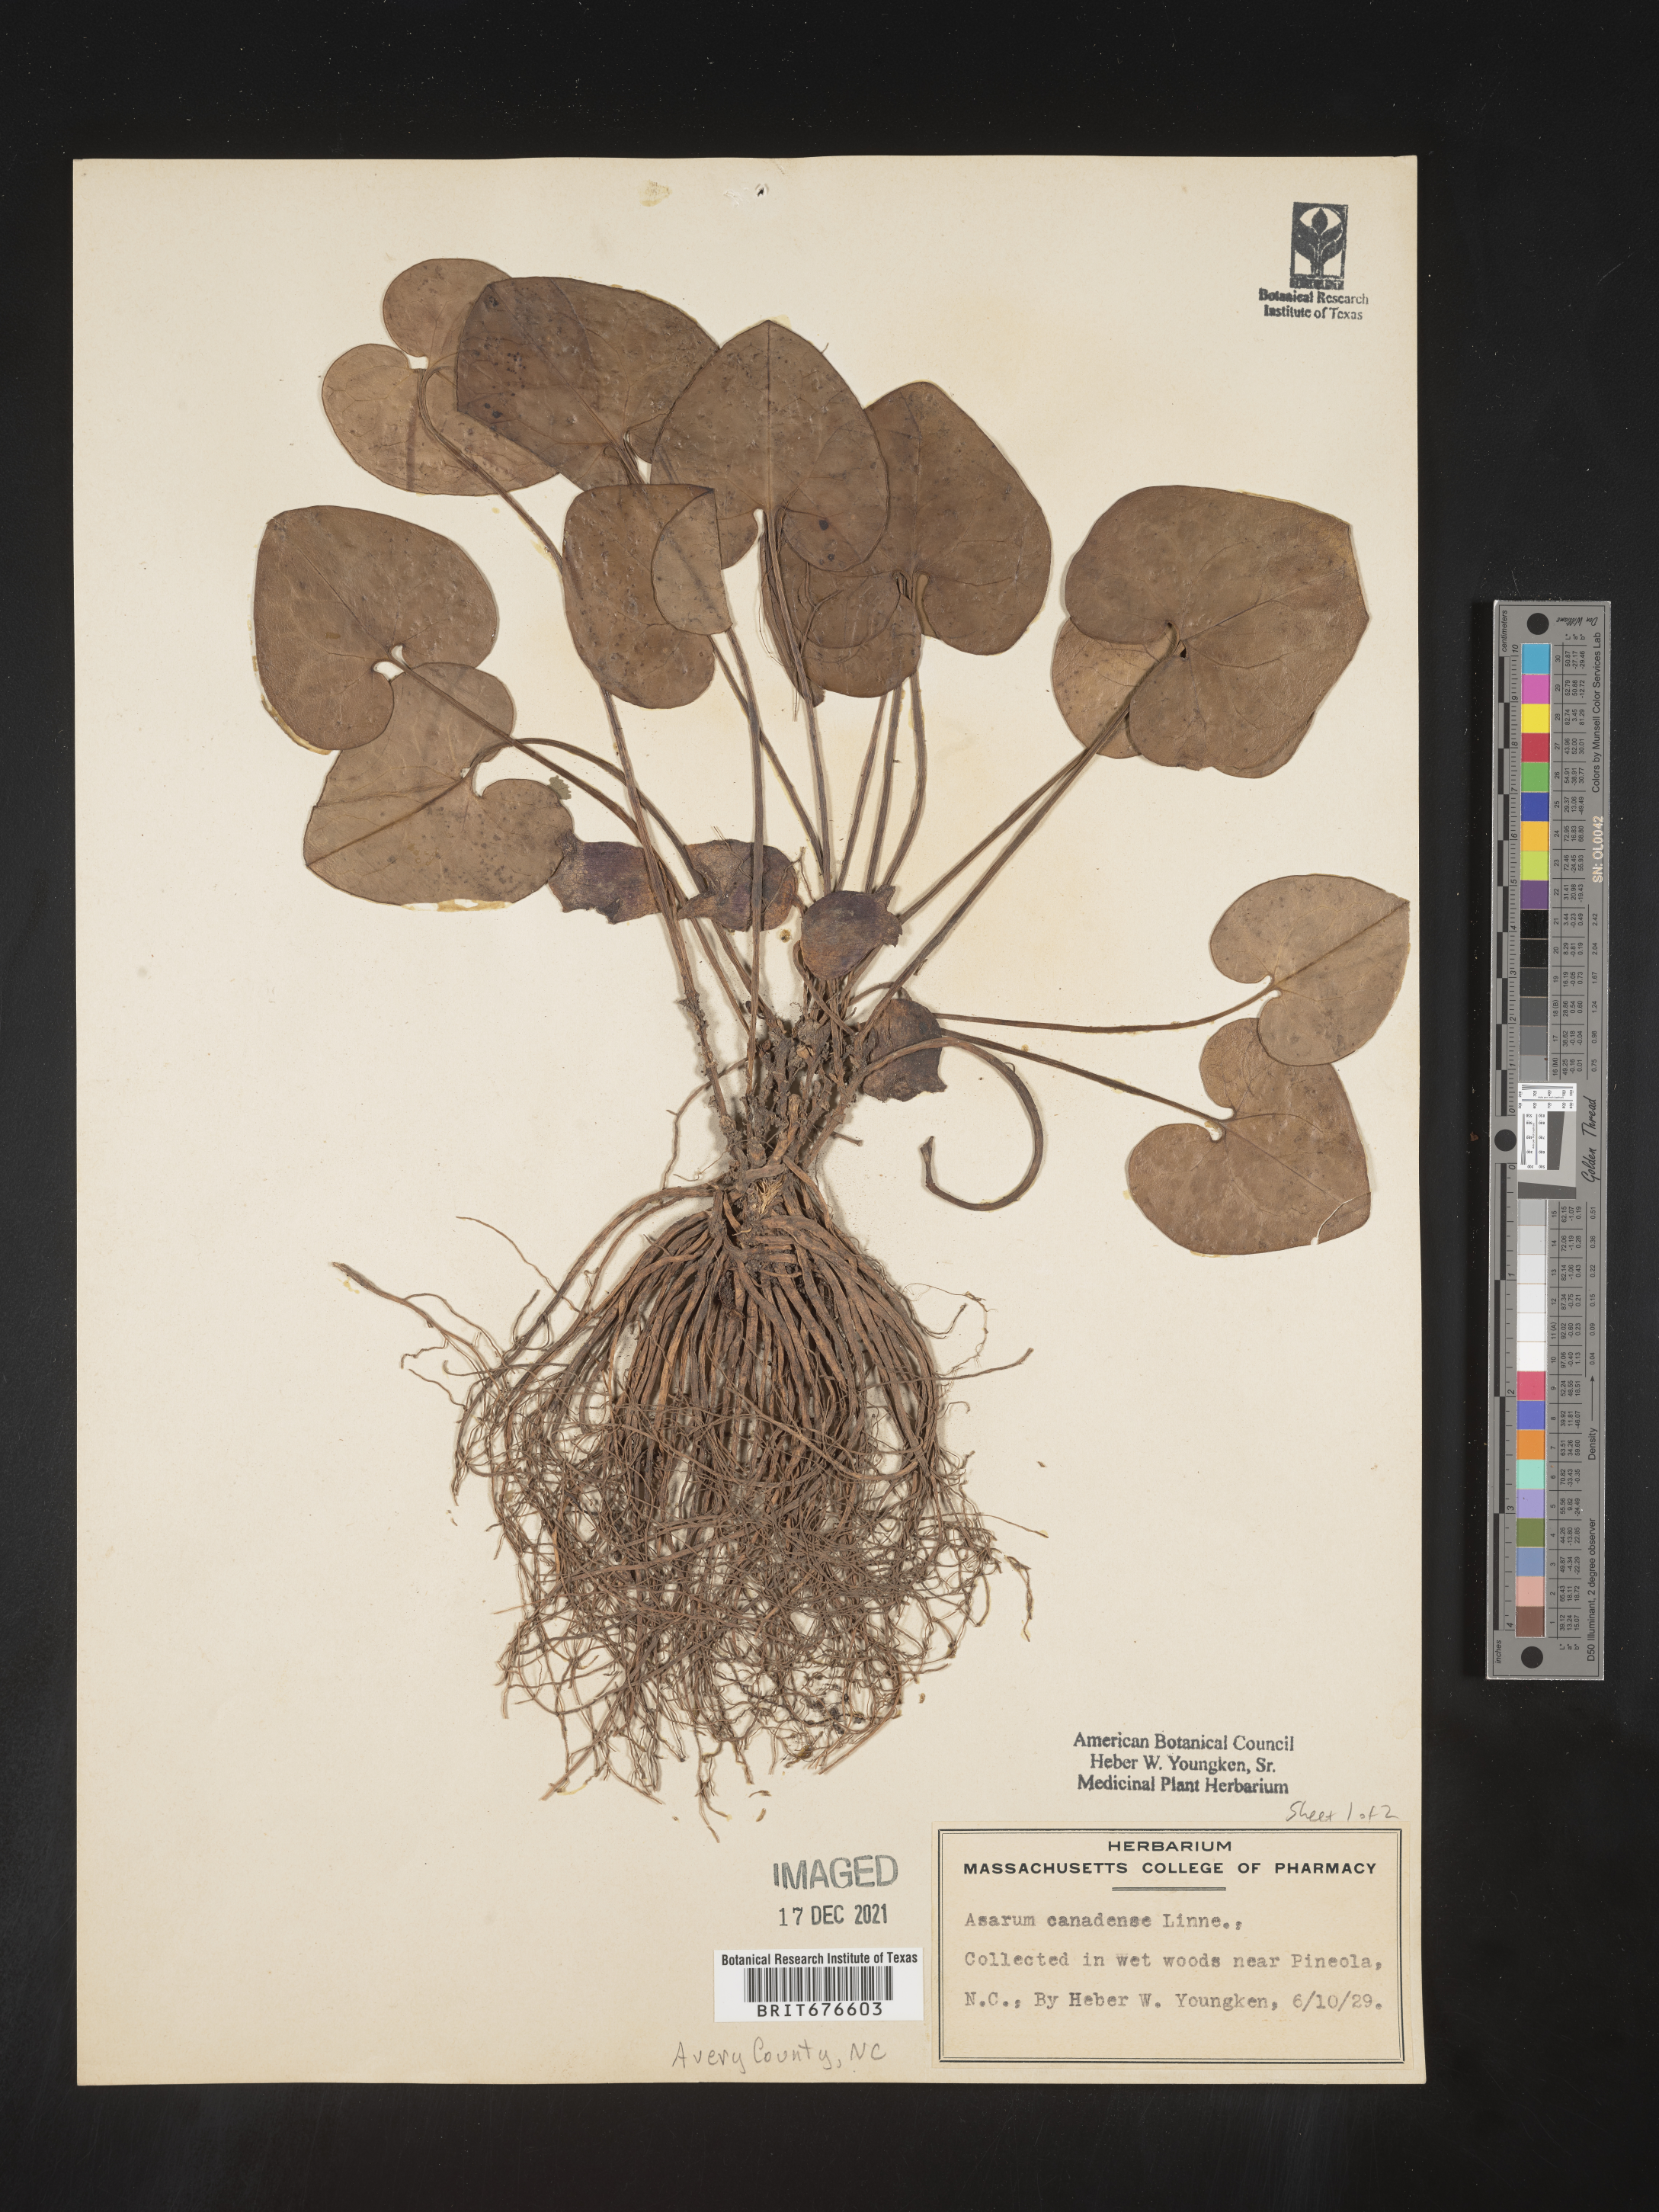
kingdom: Plantae
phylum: Tracheophyta
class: Magnoliopsida
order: Piperales
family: Aristolochiaceae
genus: Asarum
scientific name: Asarum canadense
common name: Wild ginger
